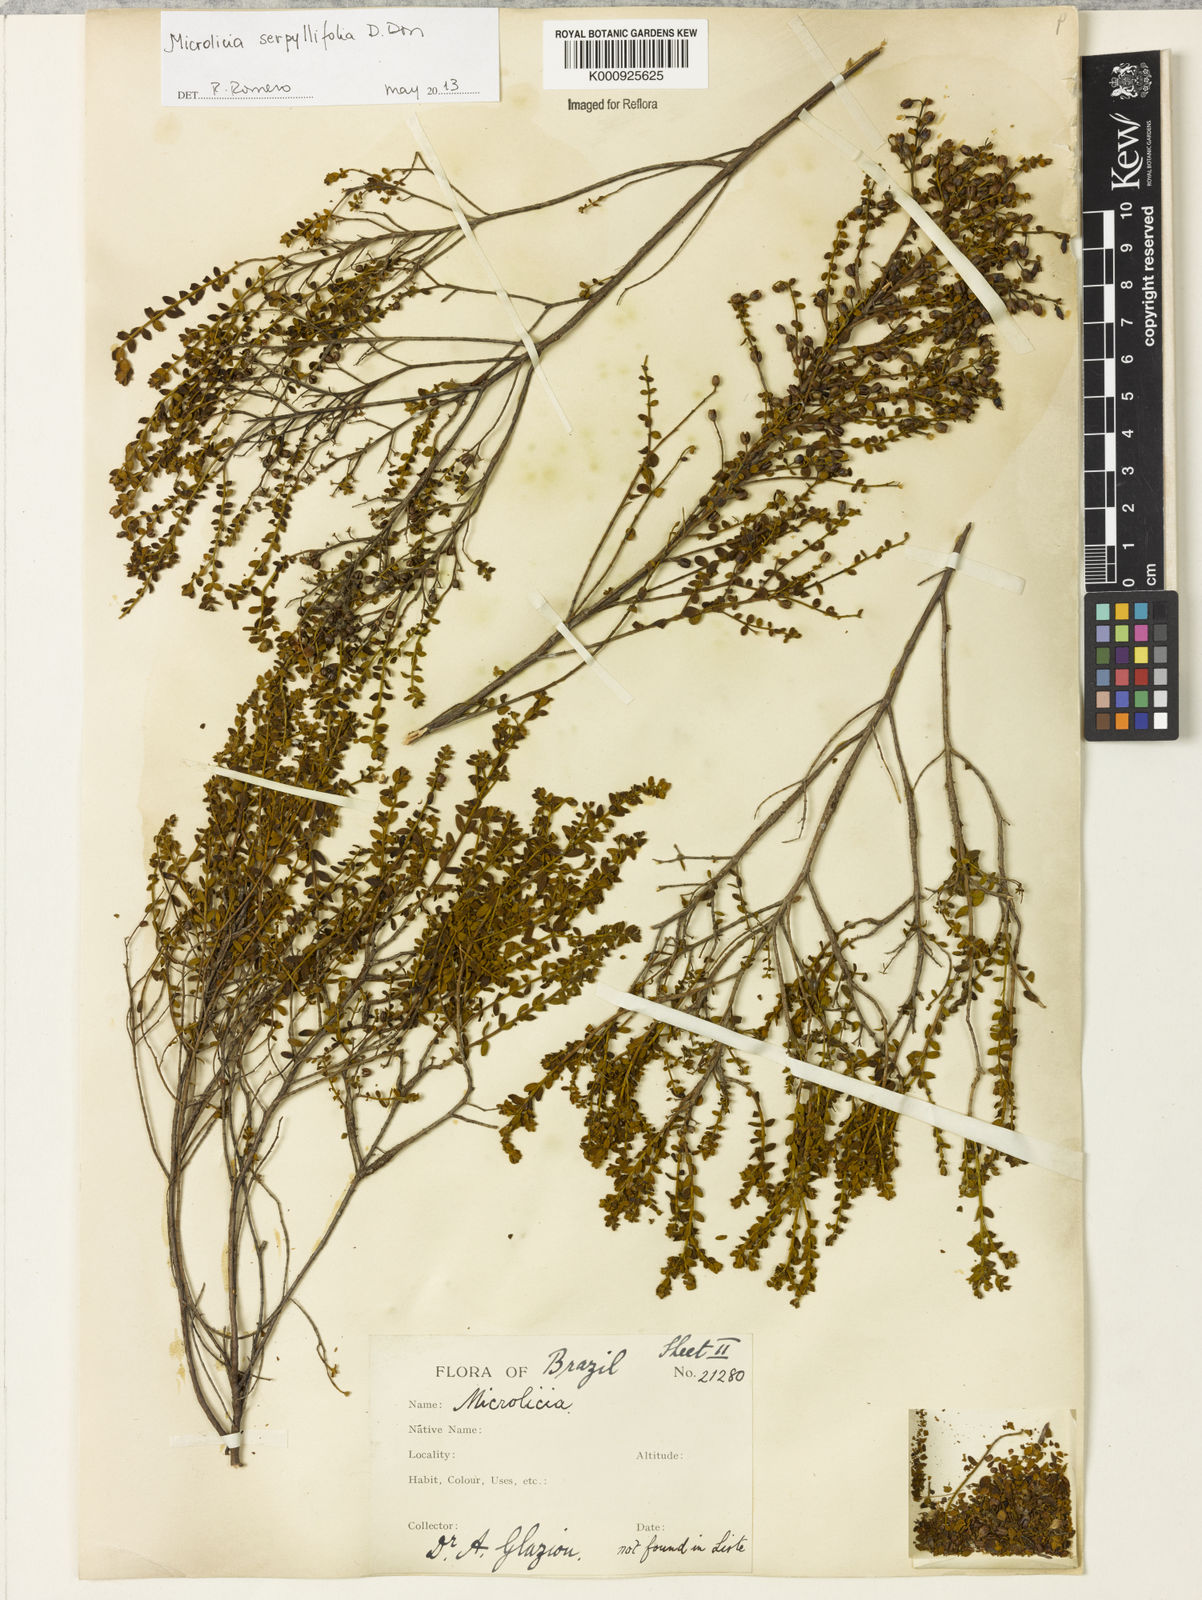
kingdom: Plantae
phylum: Tracheophyta
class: Magnoliopsida
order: Myrtales
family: Melastomataceae
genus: Microlicia
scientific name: Microlicia fulva
